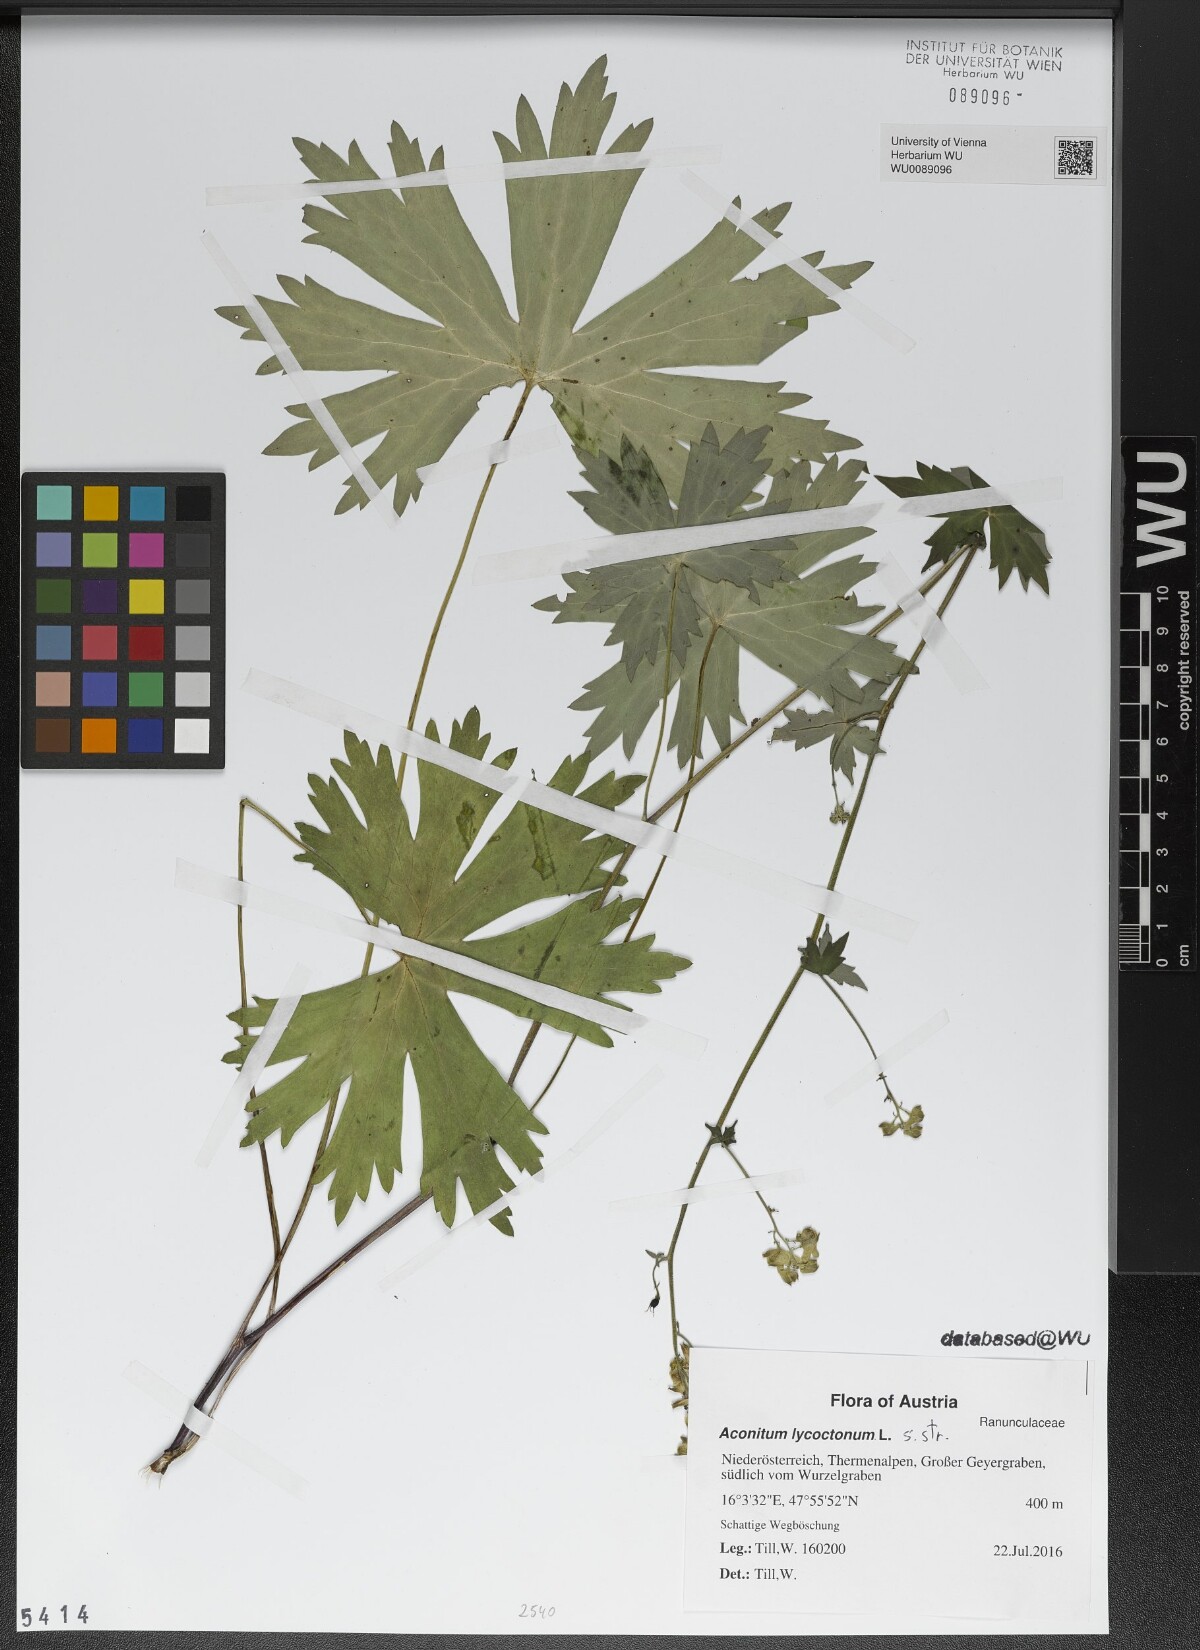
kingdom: Plantae
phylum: Tracheophyta
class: Magnoliopsida
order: Ranunculales
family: Ranunculaceae
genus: Aconitum
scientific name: Aconitum lycoctonum
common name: Wolf's-bane
